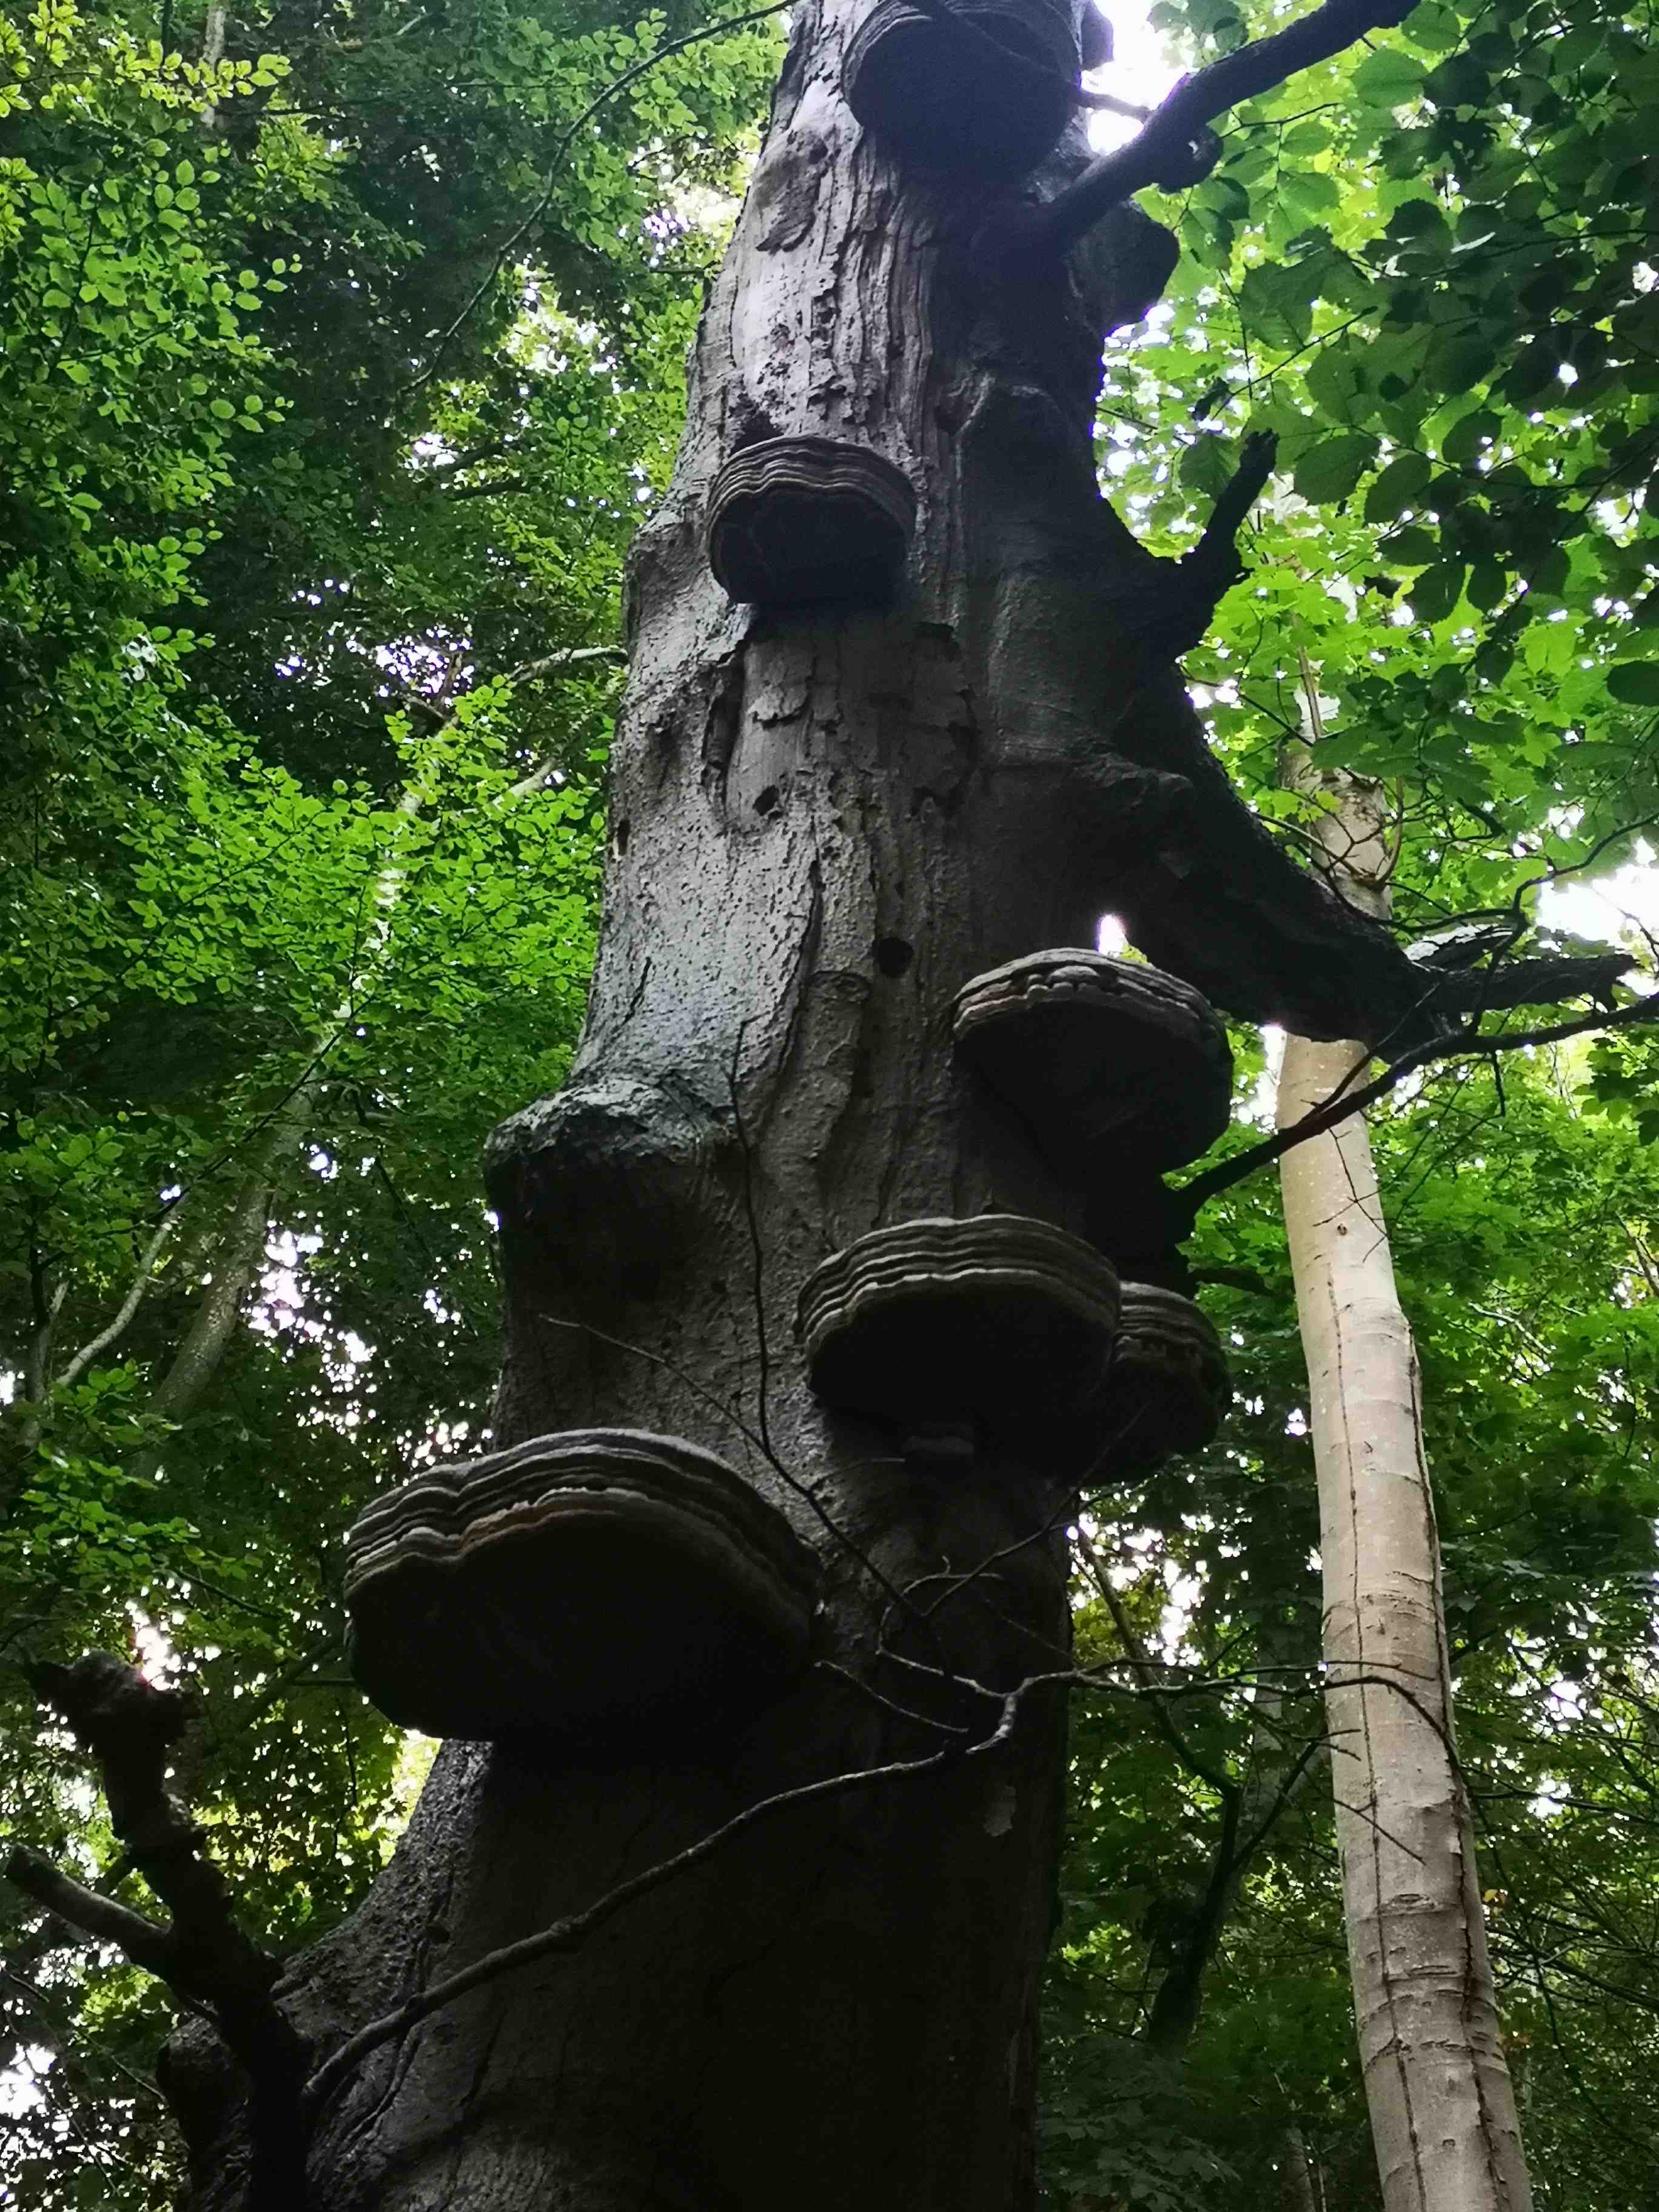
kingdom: Fungi
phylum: Basidiomycota
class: Agaricomycetes
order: Polyporales
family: Polyporaceae
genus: Fomes
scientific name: Fomes fomentarius
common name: tøndersvamp
